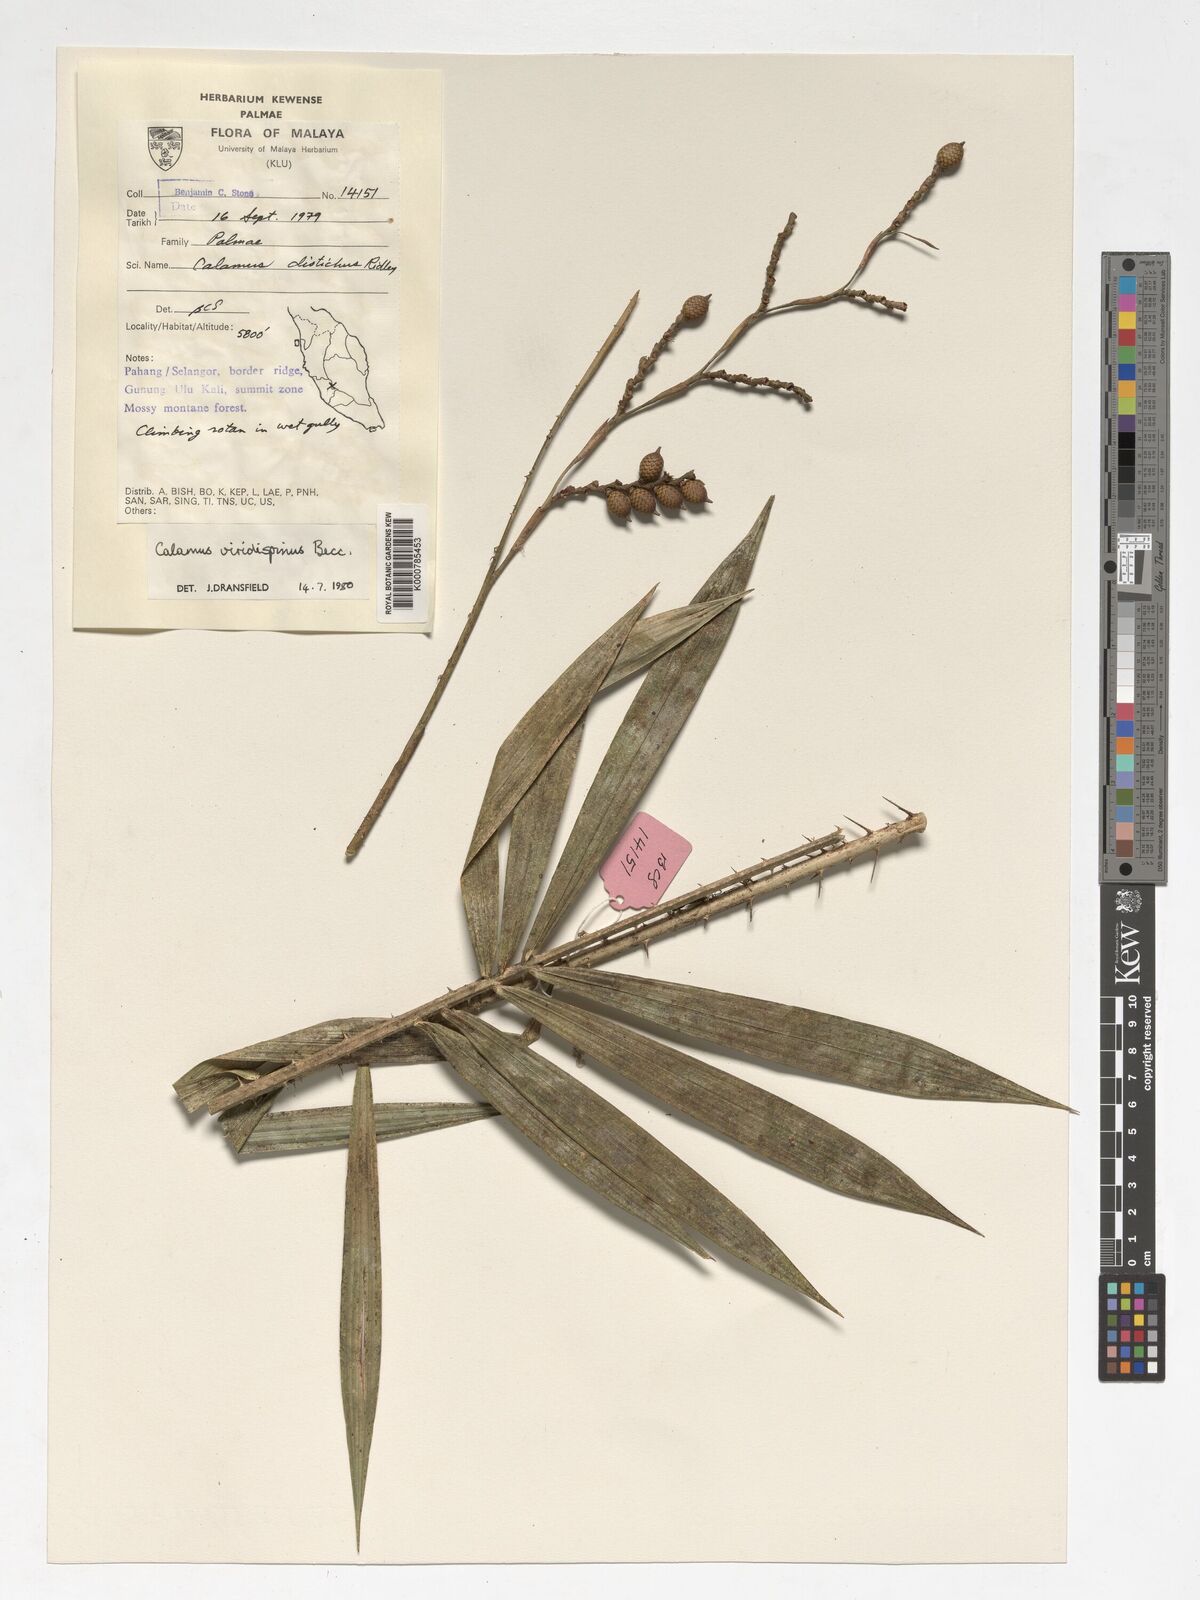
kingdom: Plantae
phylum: Tracheophyta
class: Liliopsida
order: Arecales
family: Arecaceae
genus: Calamus
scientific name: Calamus helferianus
